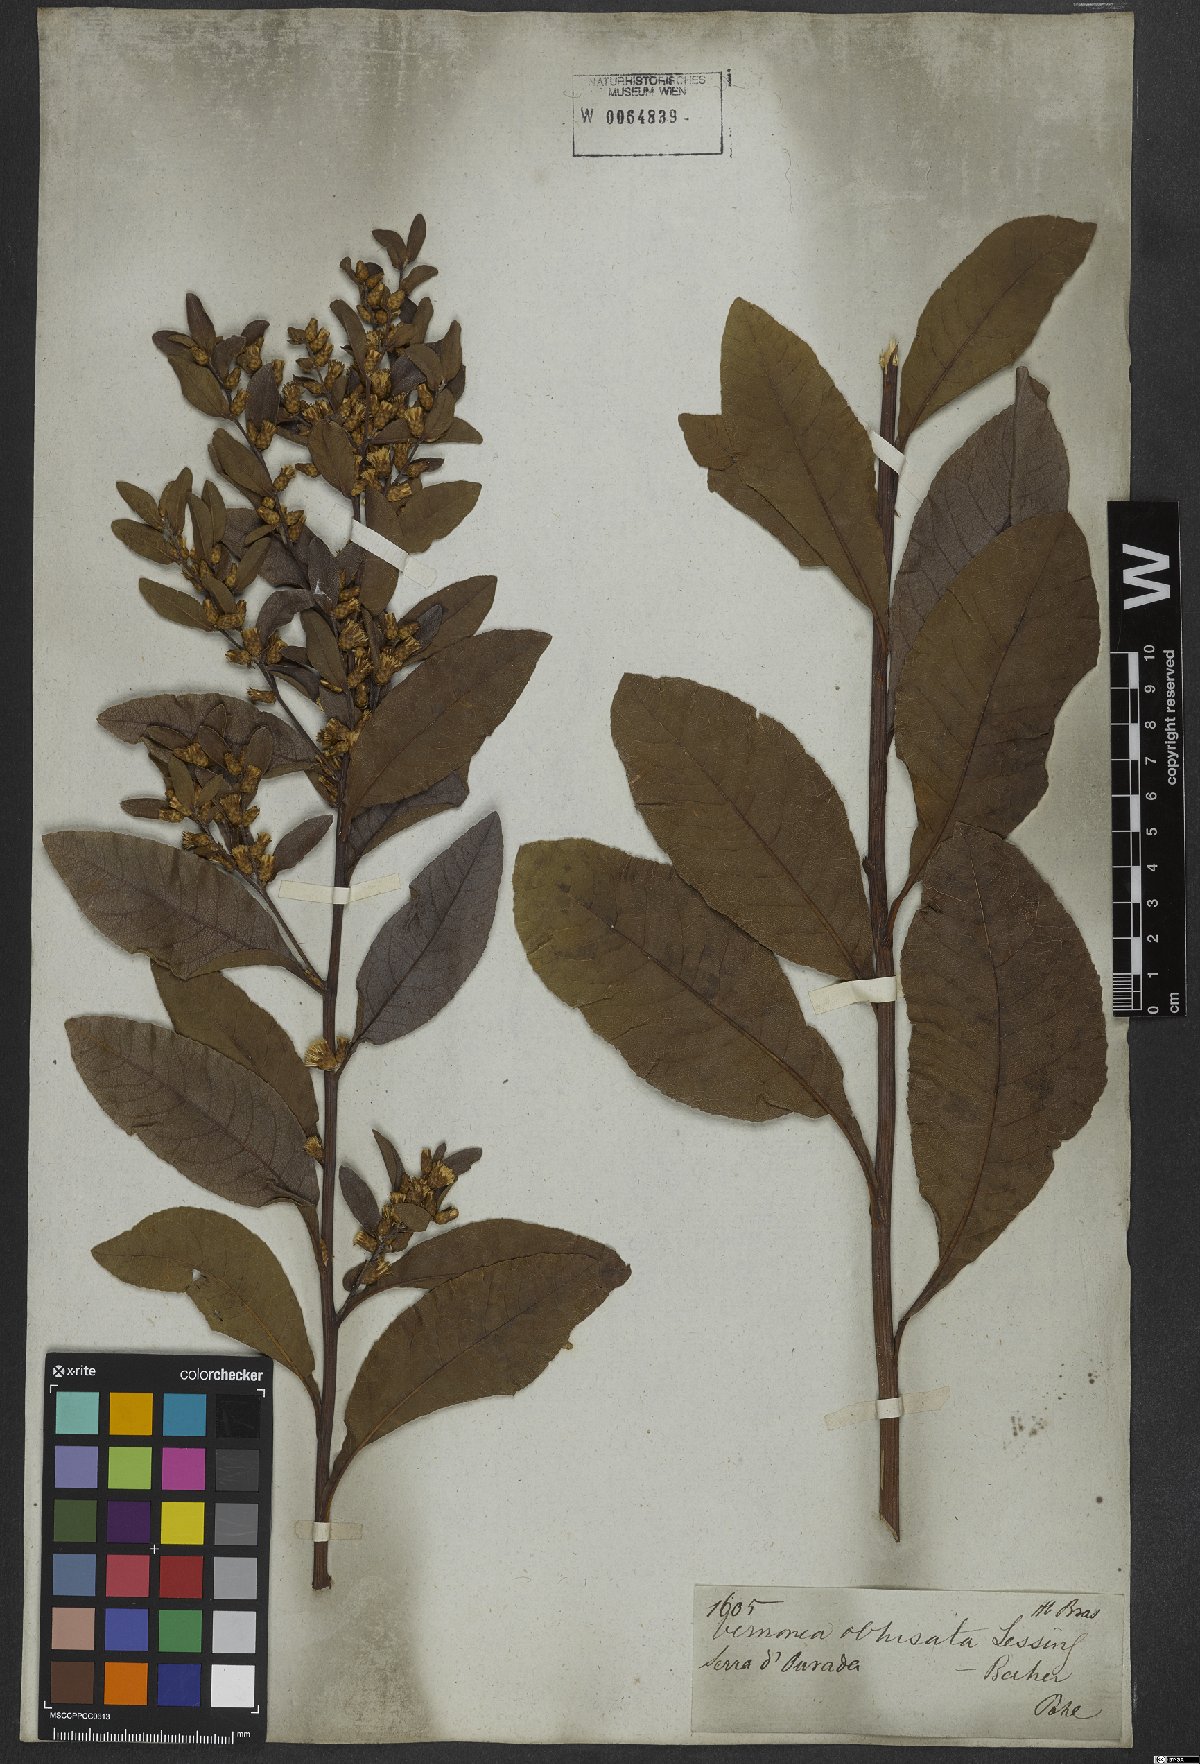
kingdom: Plantae
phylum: Tracheophyta
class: Magnoliopsida
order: Asterales
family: Asteraceae
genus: Lessingianthus
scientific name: Lessingianthus obtusatus
